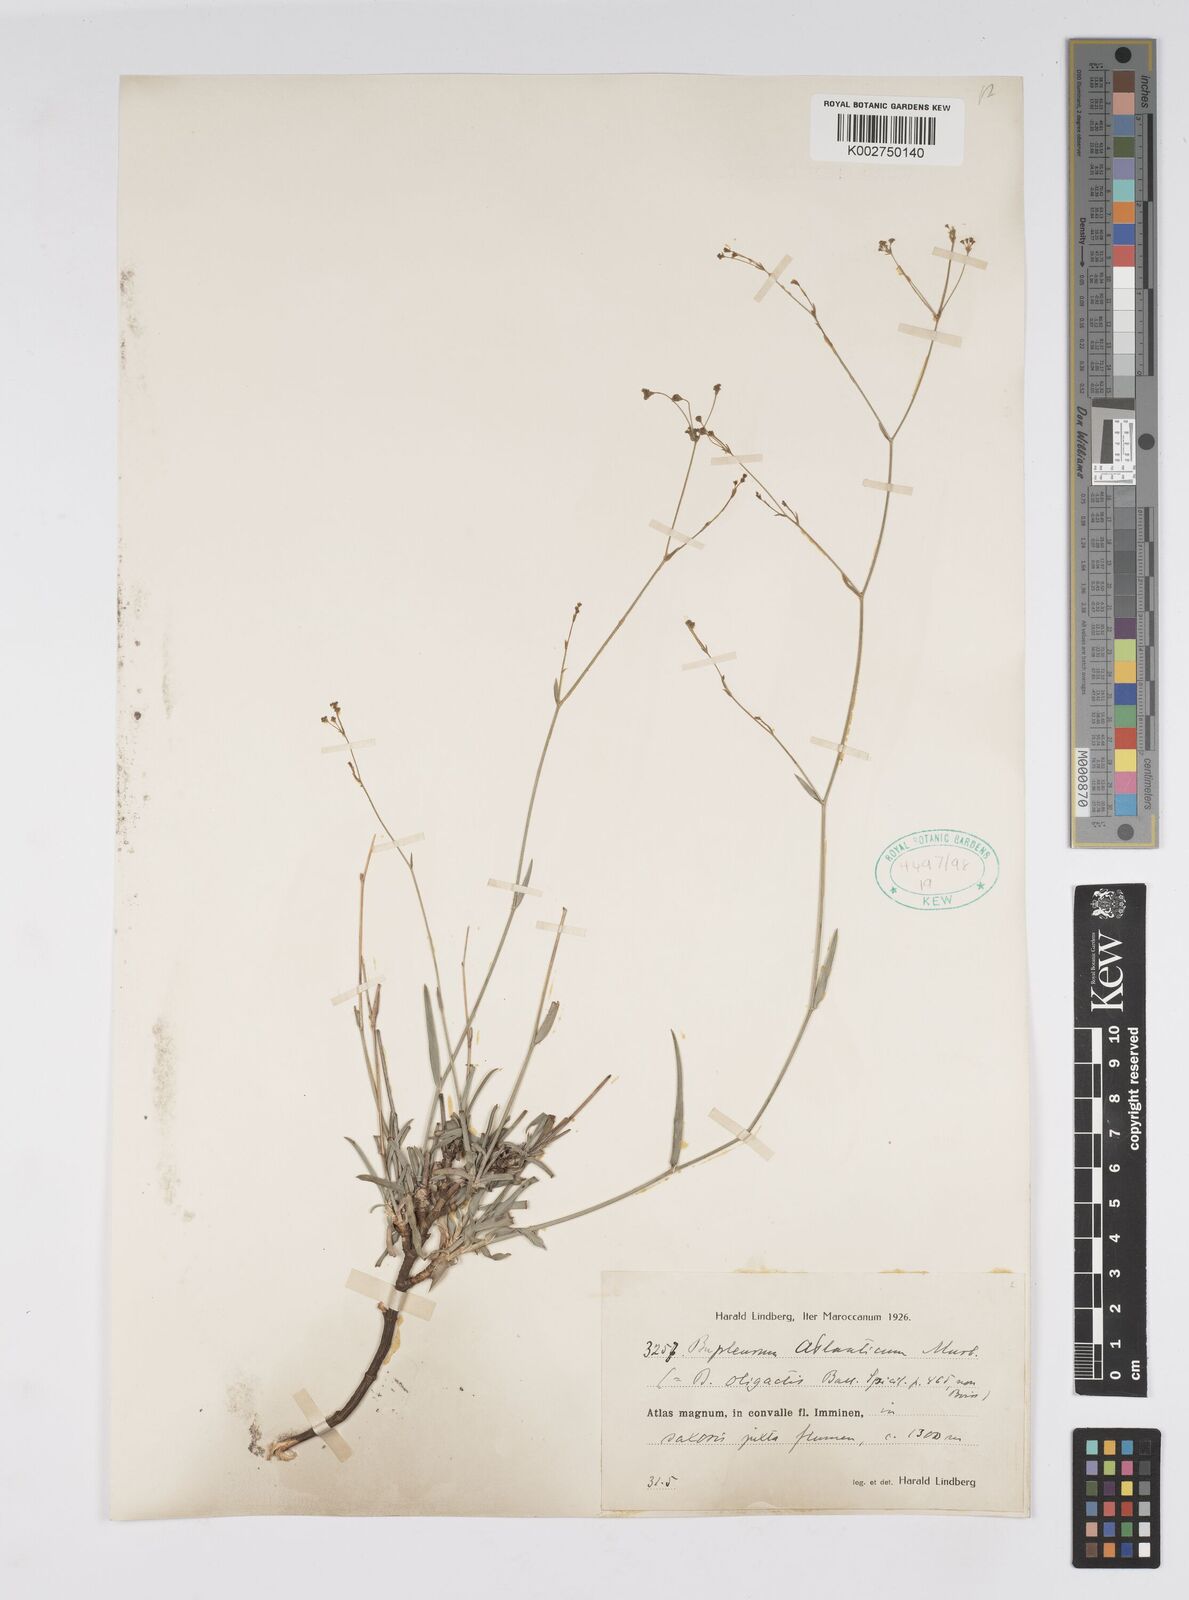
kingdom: Plantae
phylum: Tracheophyta
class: Magnoliopsida
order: Apiales
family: Apiaceae
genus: Bupleurum
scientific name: Bupleurum oligactis
